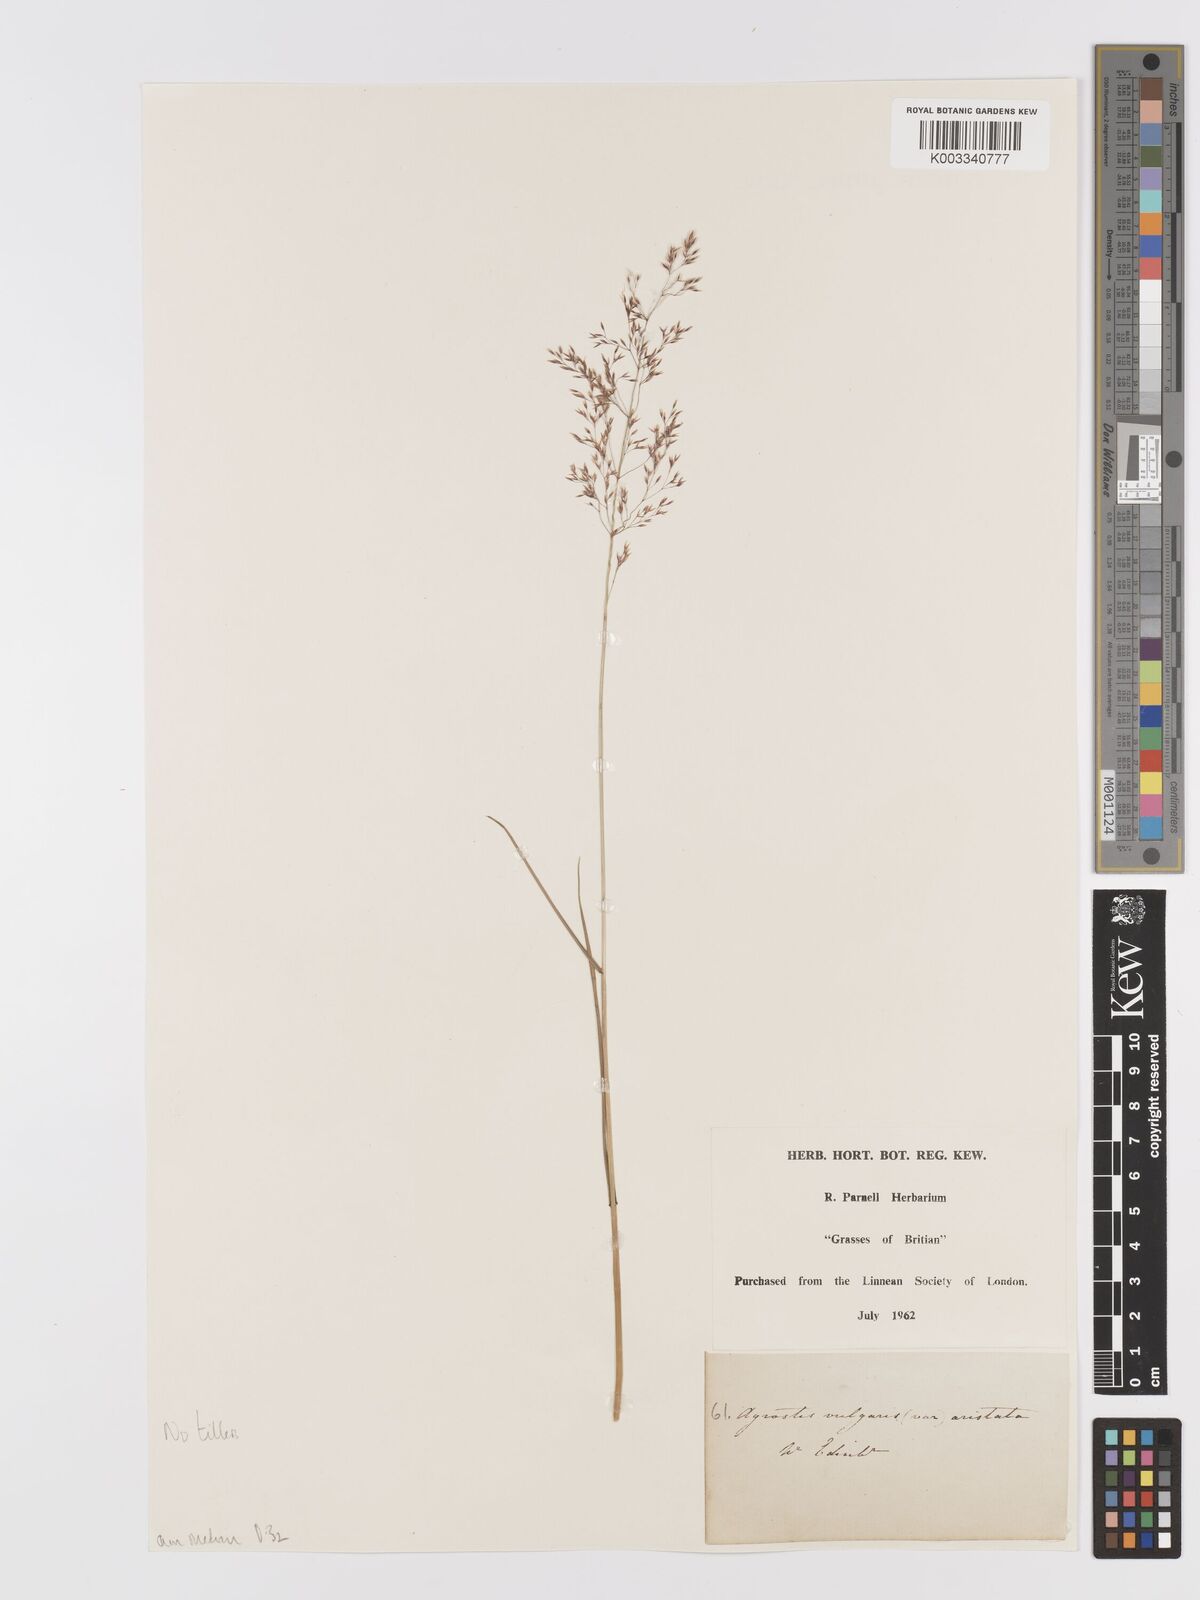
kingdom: Plantae
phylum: Tracheophyta
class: Liliopsida
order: Poales
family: Poaceae
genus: Agrostis
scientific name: Agrostis capillaris
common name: Colonial bentgrass
